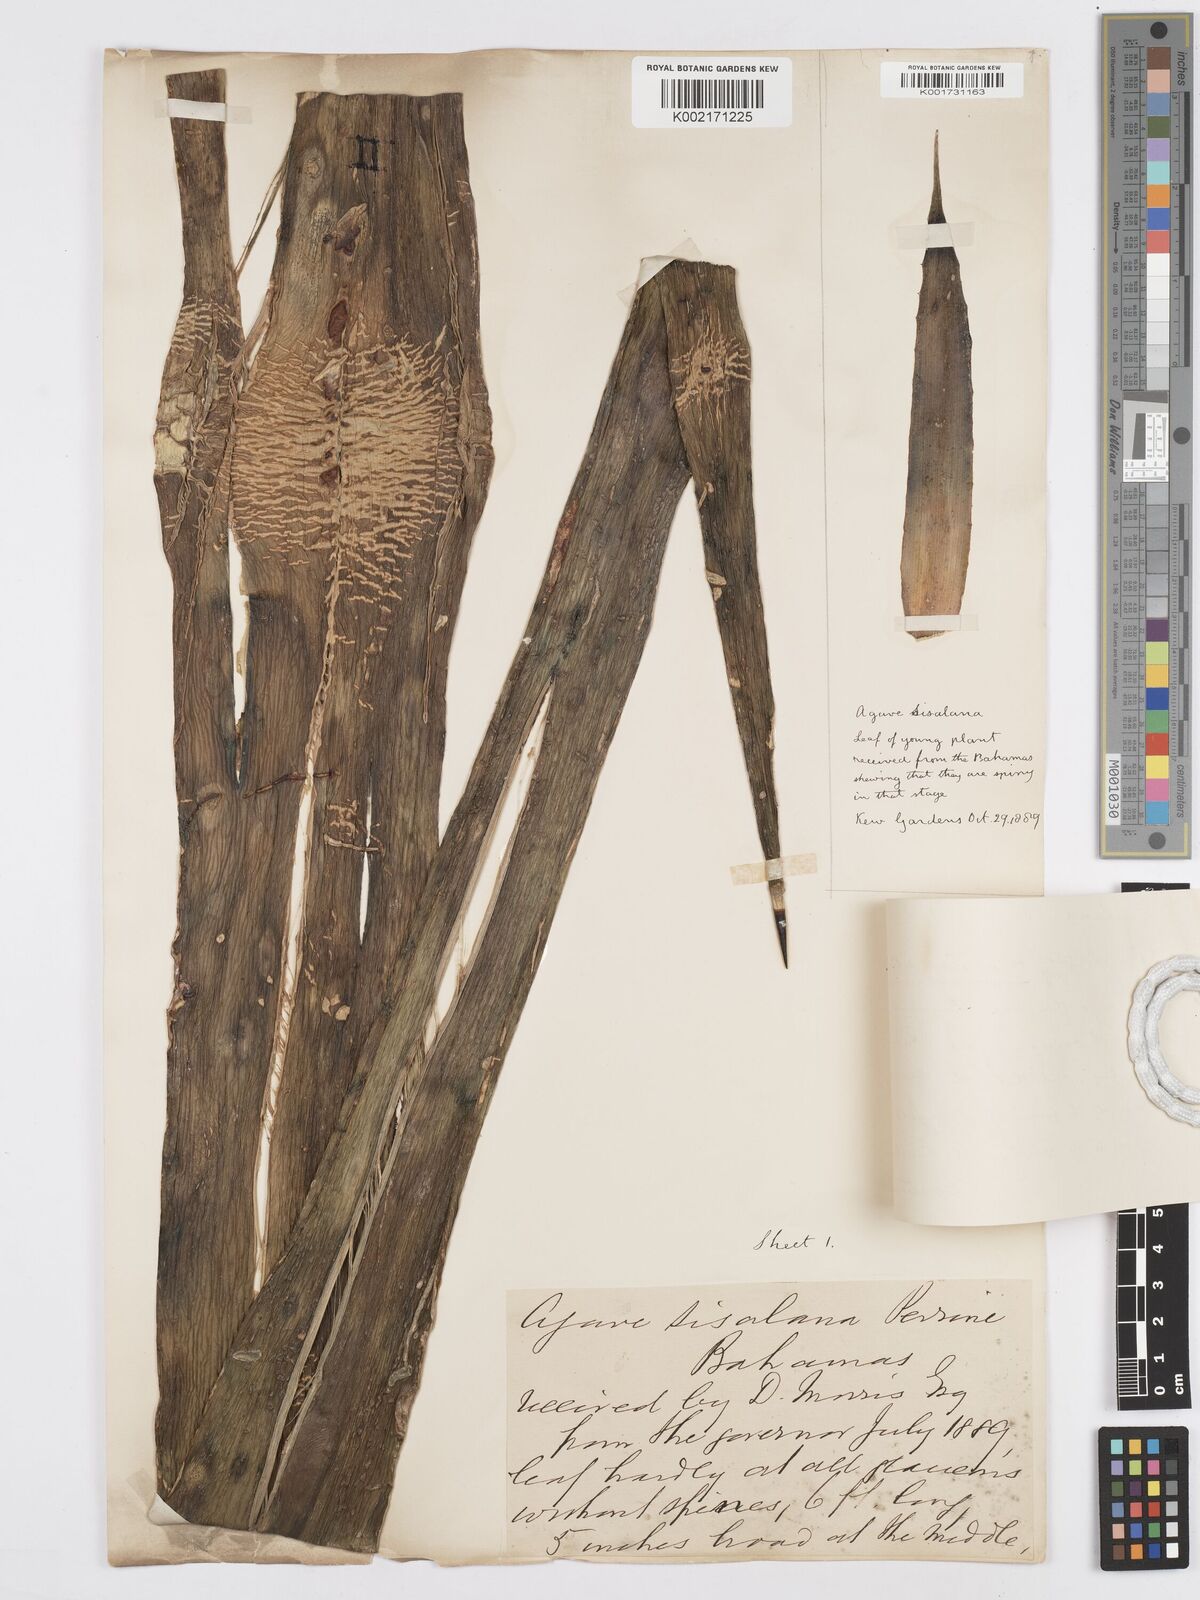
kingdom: Plantae
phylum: Tracheophyta
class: Liliopsida
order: Asparagales
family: Asparagaceae
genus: Agave
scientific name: Agave sisalana
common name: Sisal hemp
